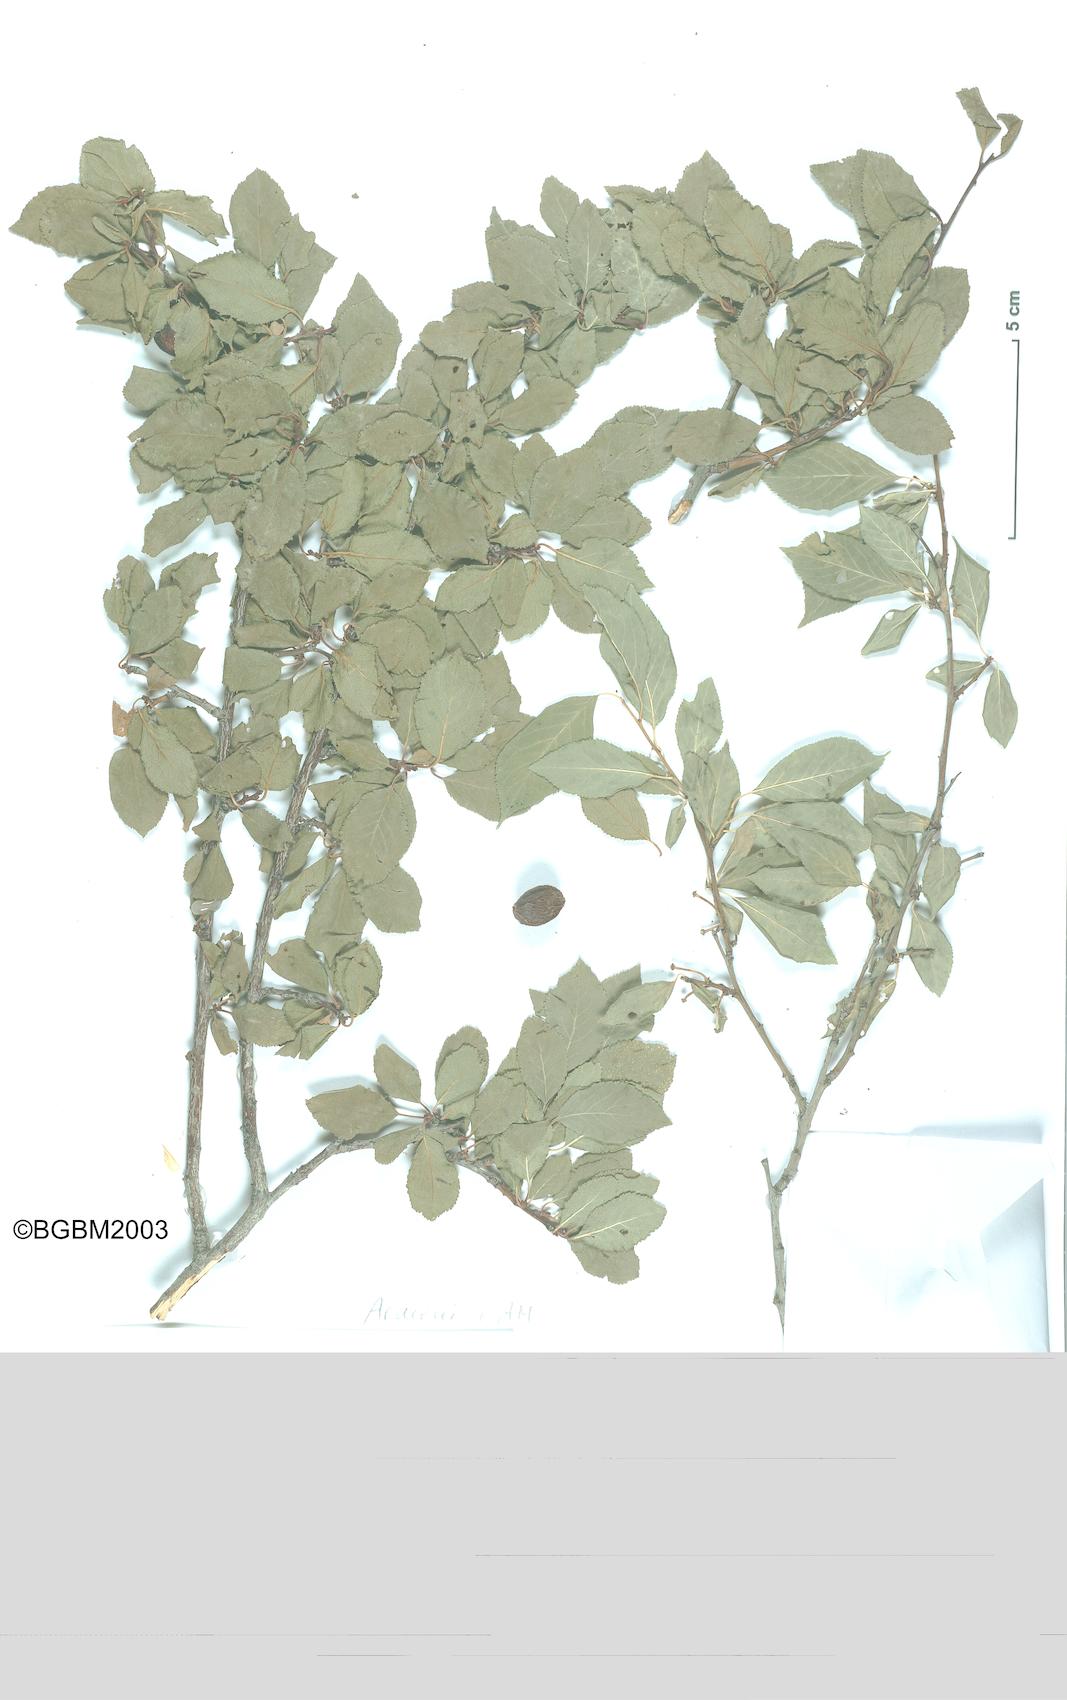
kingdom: Plantae
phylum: Tracheophyta
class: Magnoliopsida
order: Rosales
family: Rosaceae
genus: Prunus
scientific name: Prunus cerasifera
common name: Cherry plum
